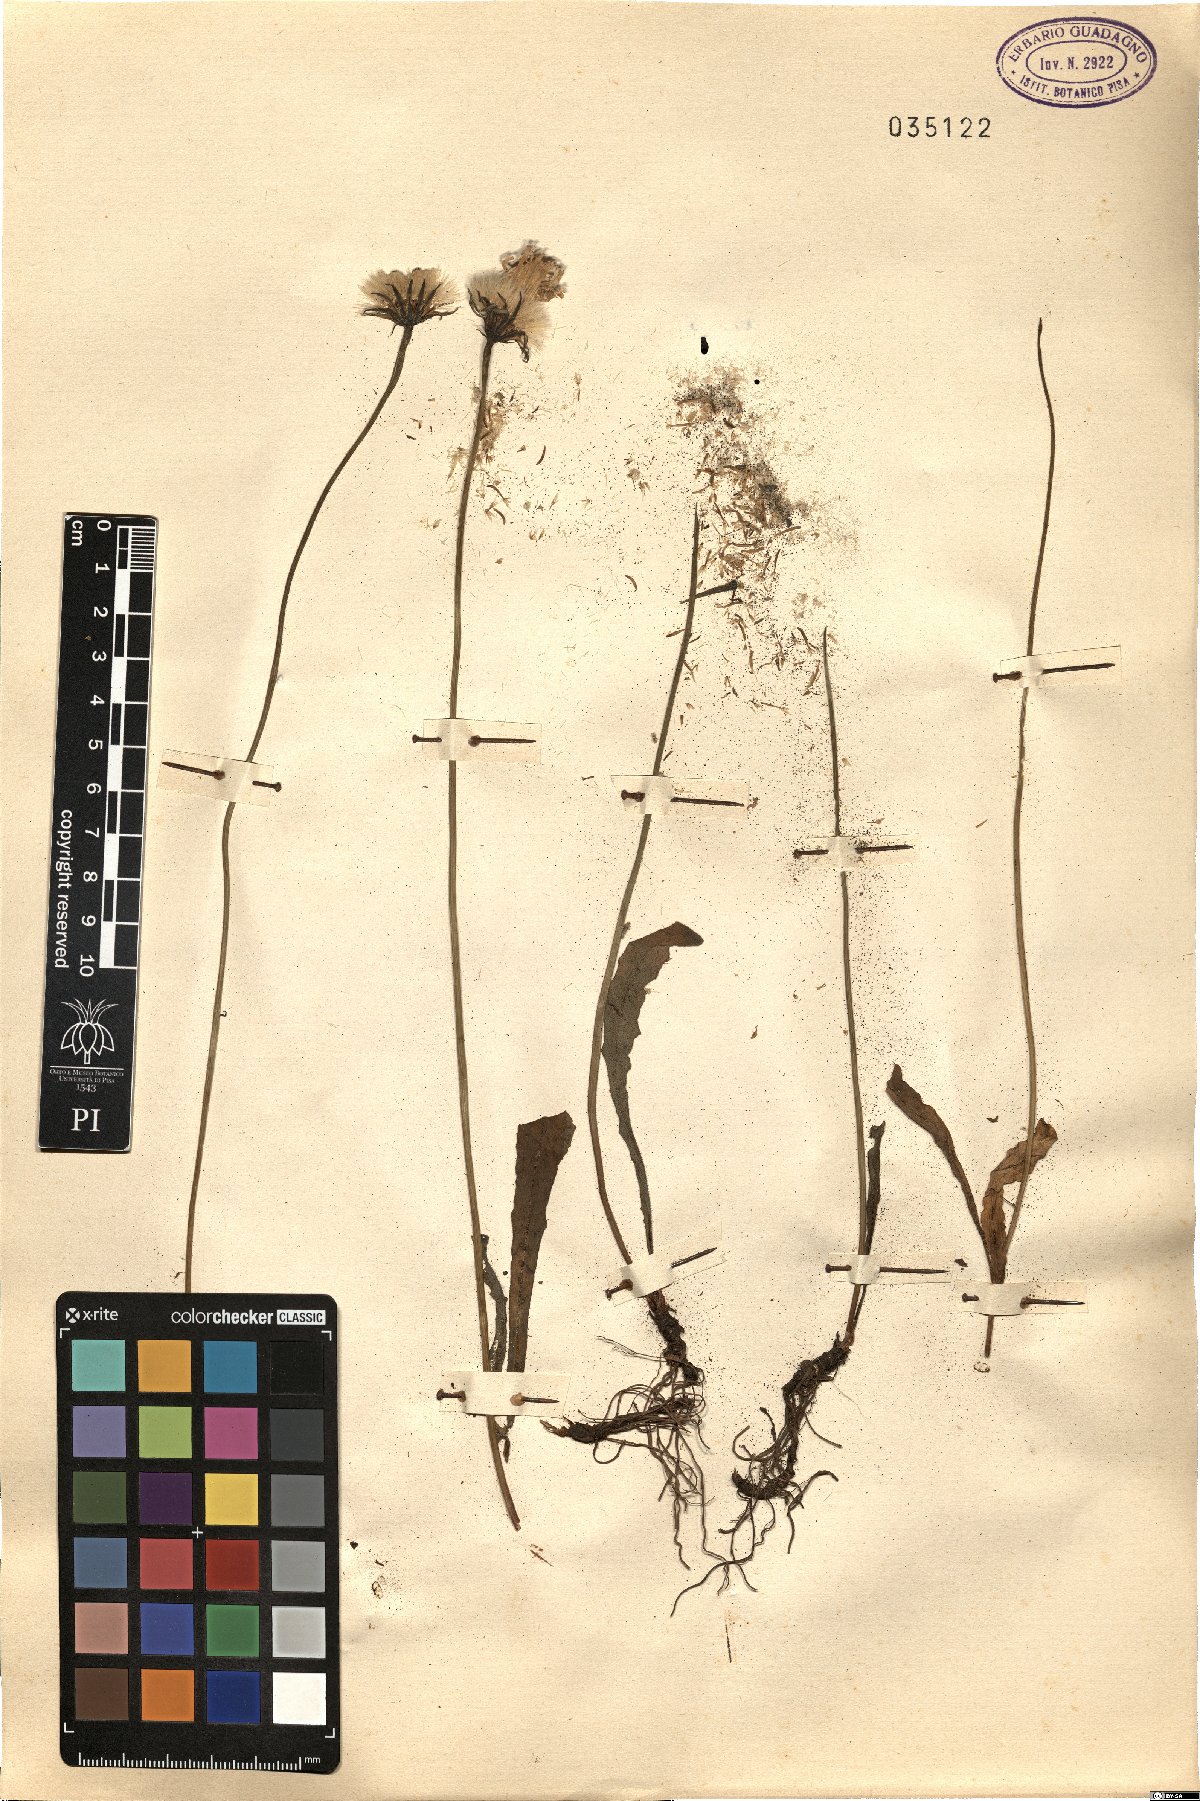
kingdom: Plantae
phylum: Tracheophyta
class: Magnoliopsida
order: Asterales
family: Asteraceae
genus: Leontodon
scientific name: Leontodon
